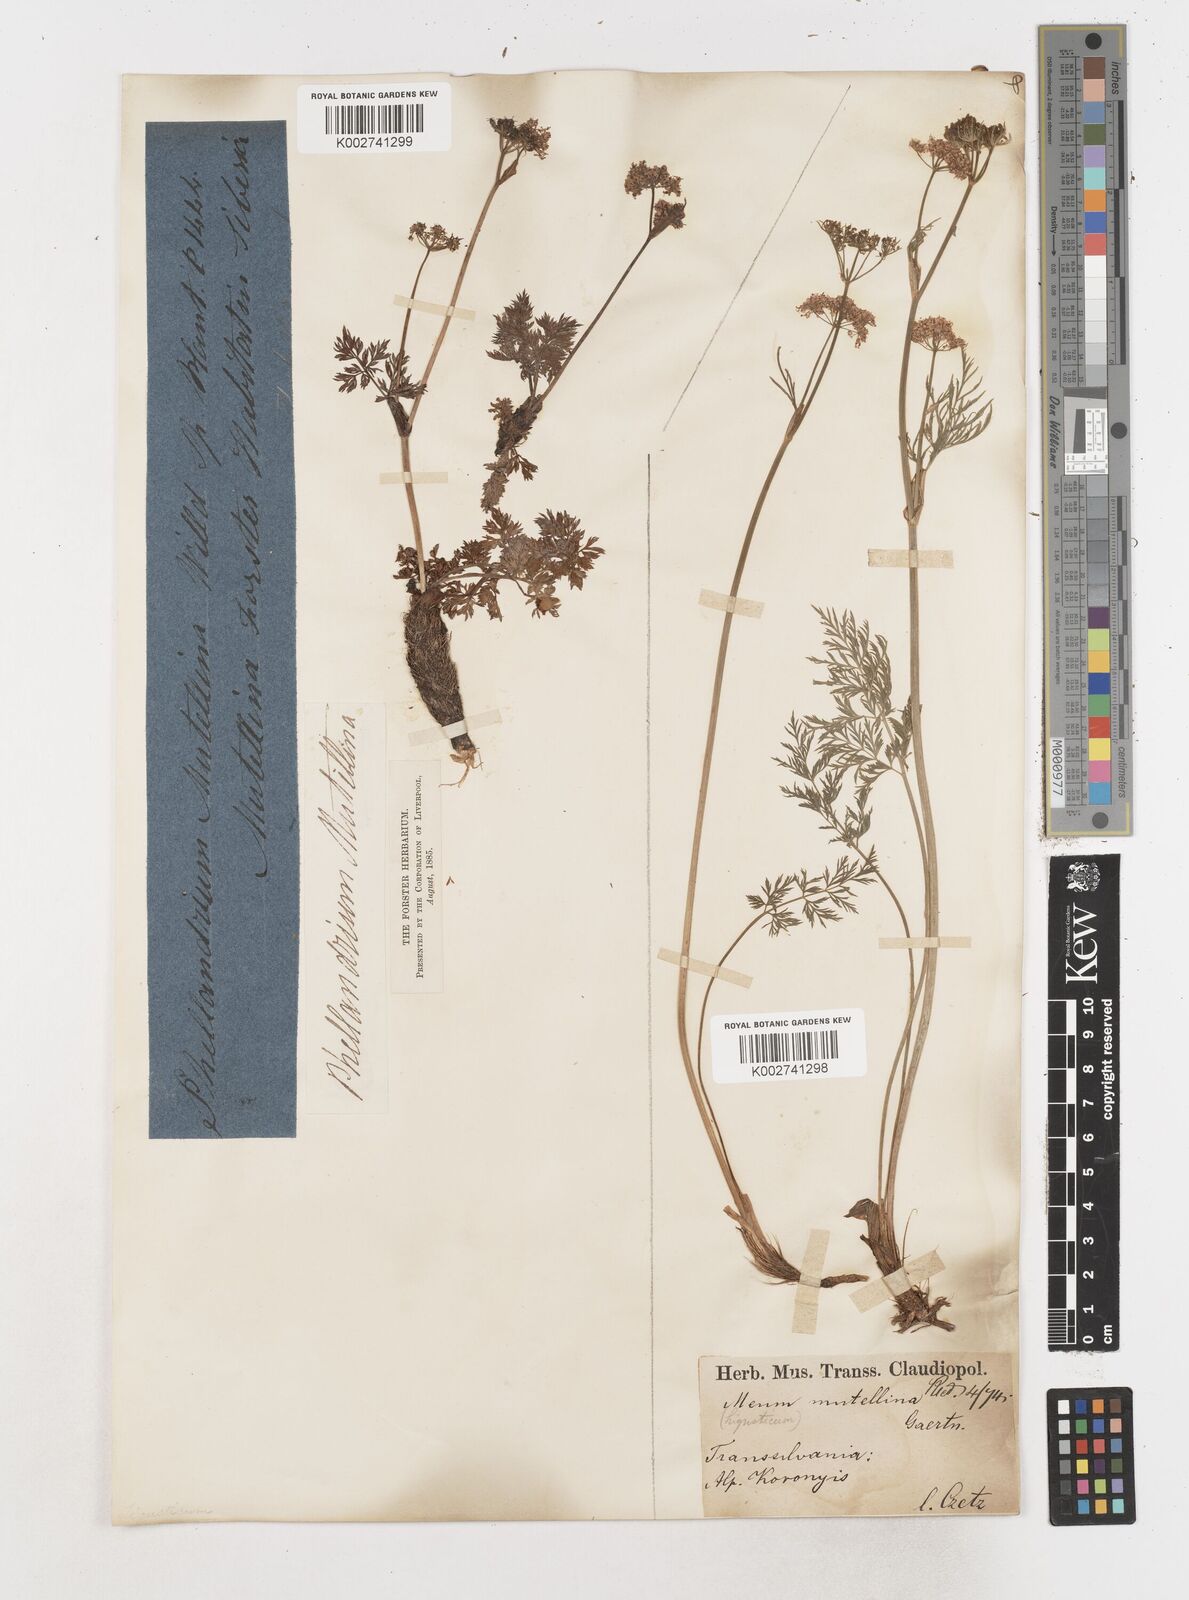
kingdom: Plantae
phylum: Tracheophyta
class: Magnoliopsida
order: Apiales
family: Apiaceae
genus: Ligusticum
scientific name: Ligusticum
